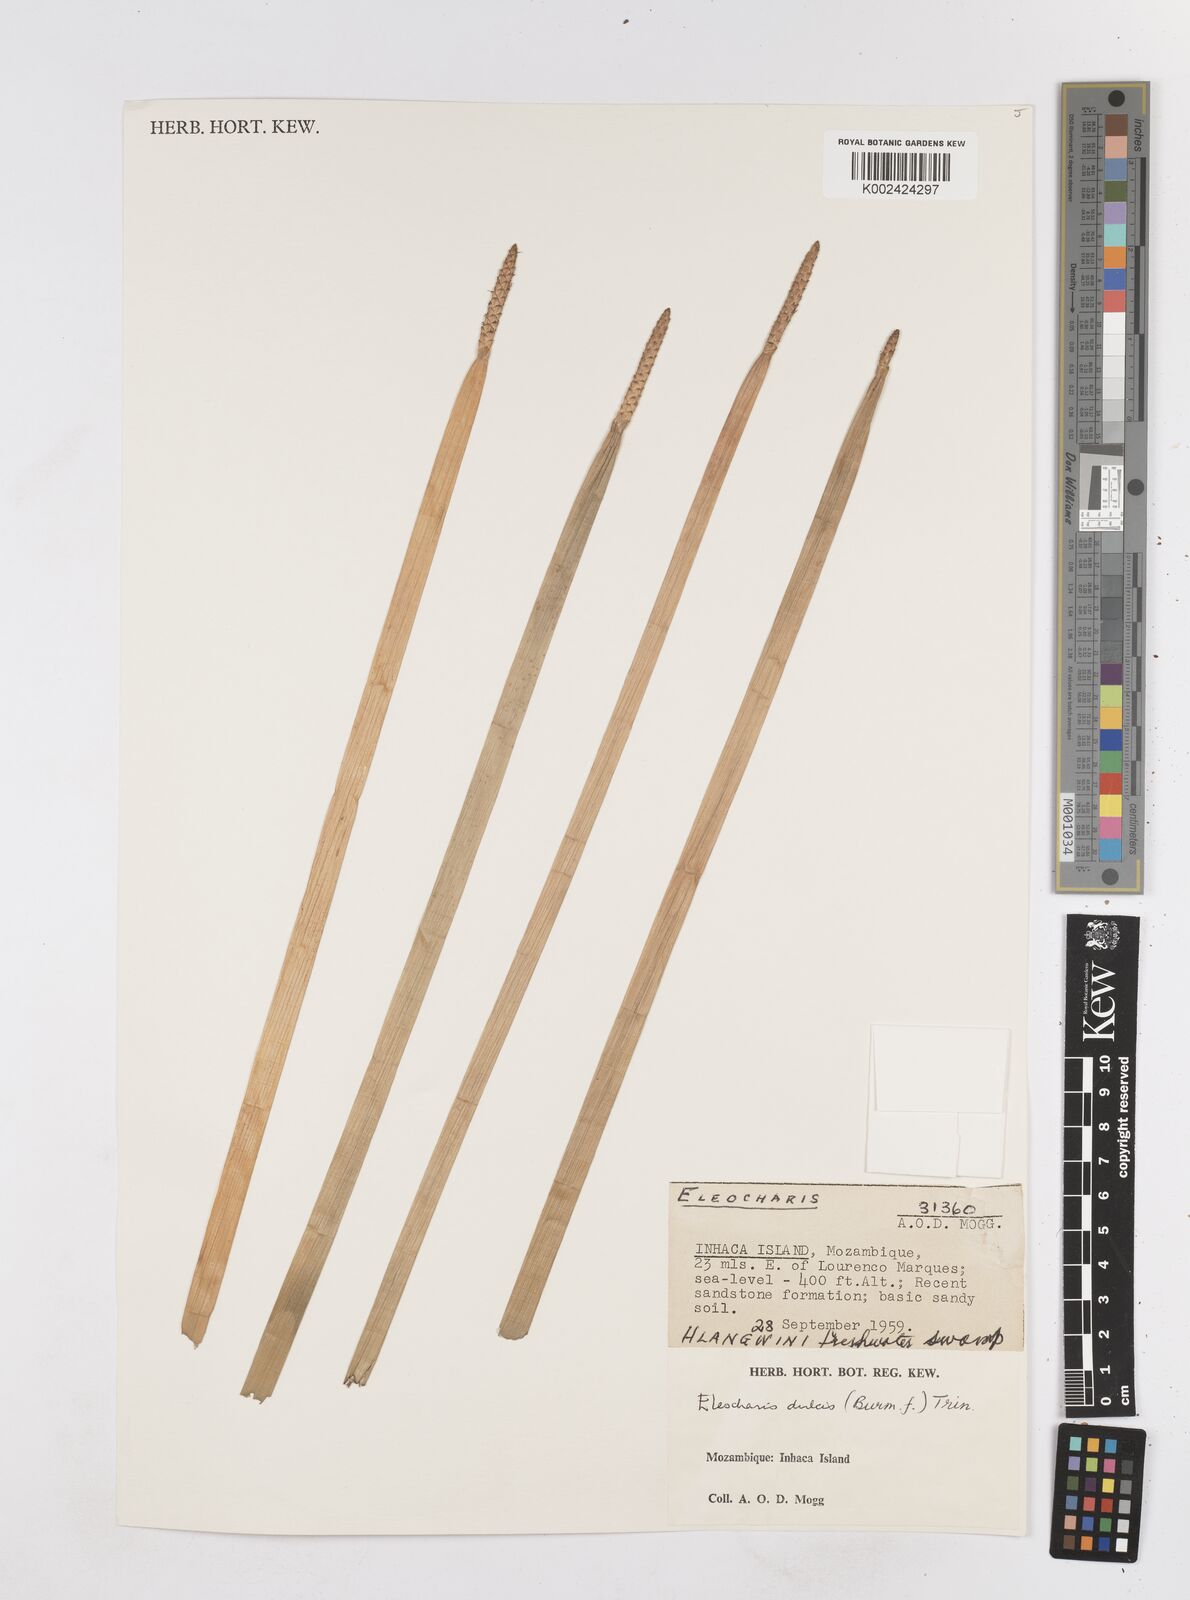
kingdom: Plantae
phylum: Tracheophyta
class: Liliopsida
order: Poales
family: Cyperaceae
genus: Eleocharis
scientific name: Eleocharis dulcis
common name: Chinese water chestnut
